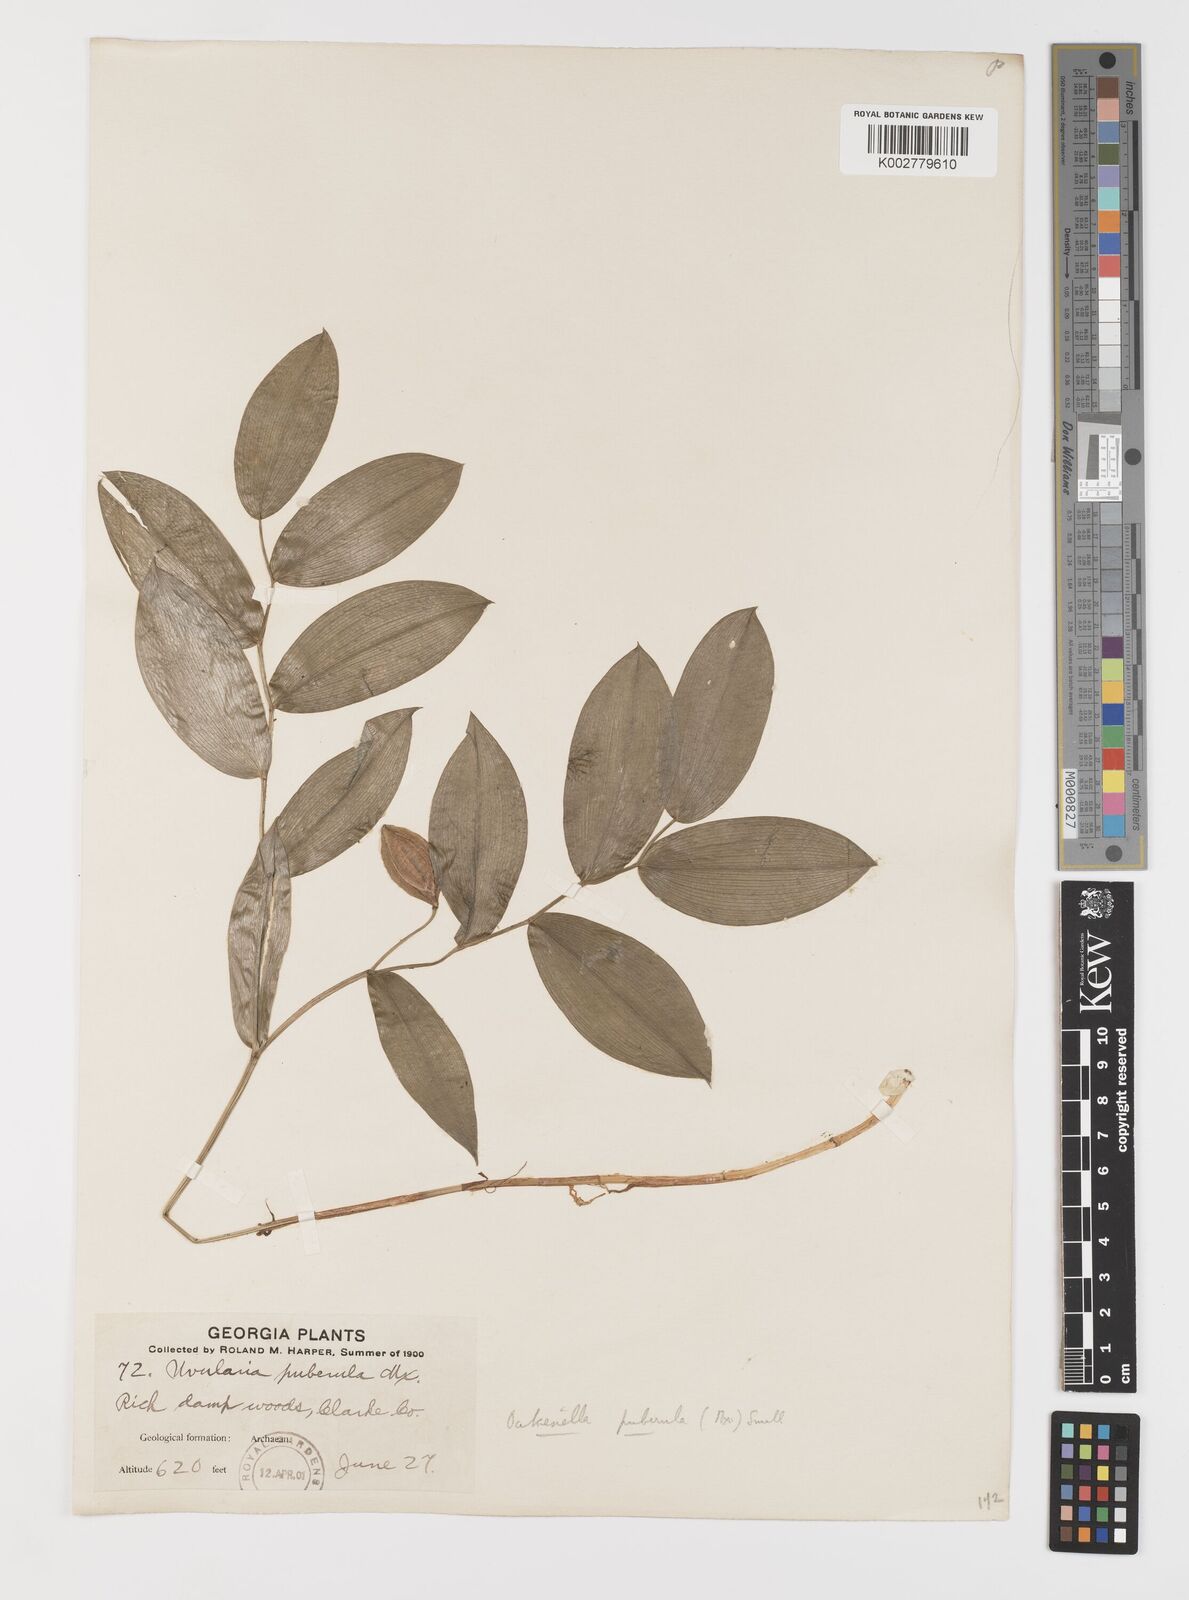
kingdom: Plantae
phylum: Tracheophyta
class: Liliopsida
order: Liliales
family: Colchicaceae
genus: Uvularia
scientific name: Uvularia puberula
